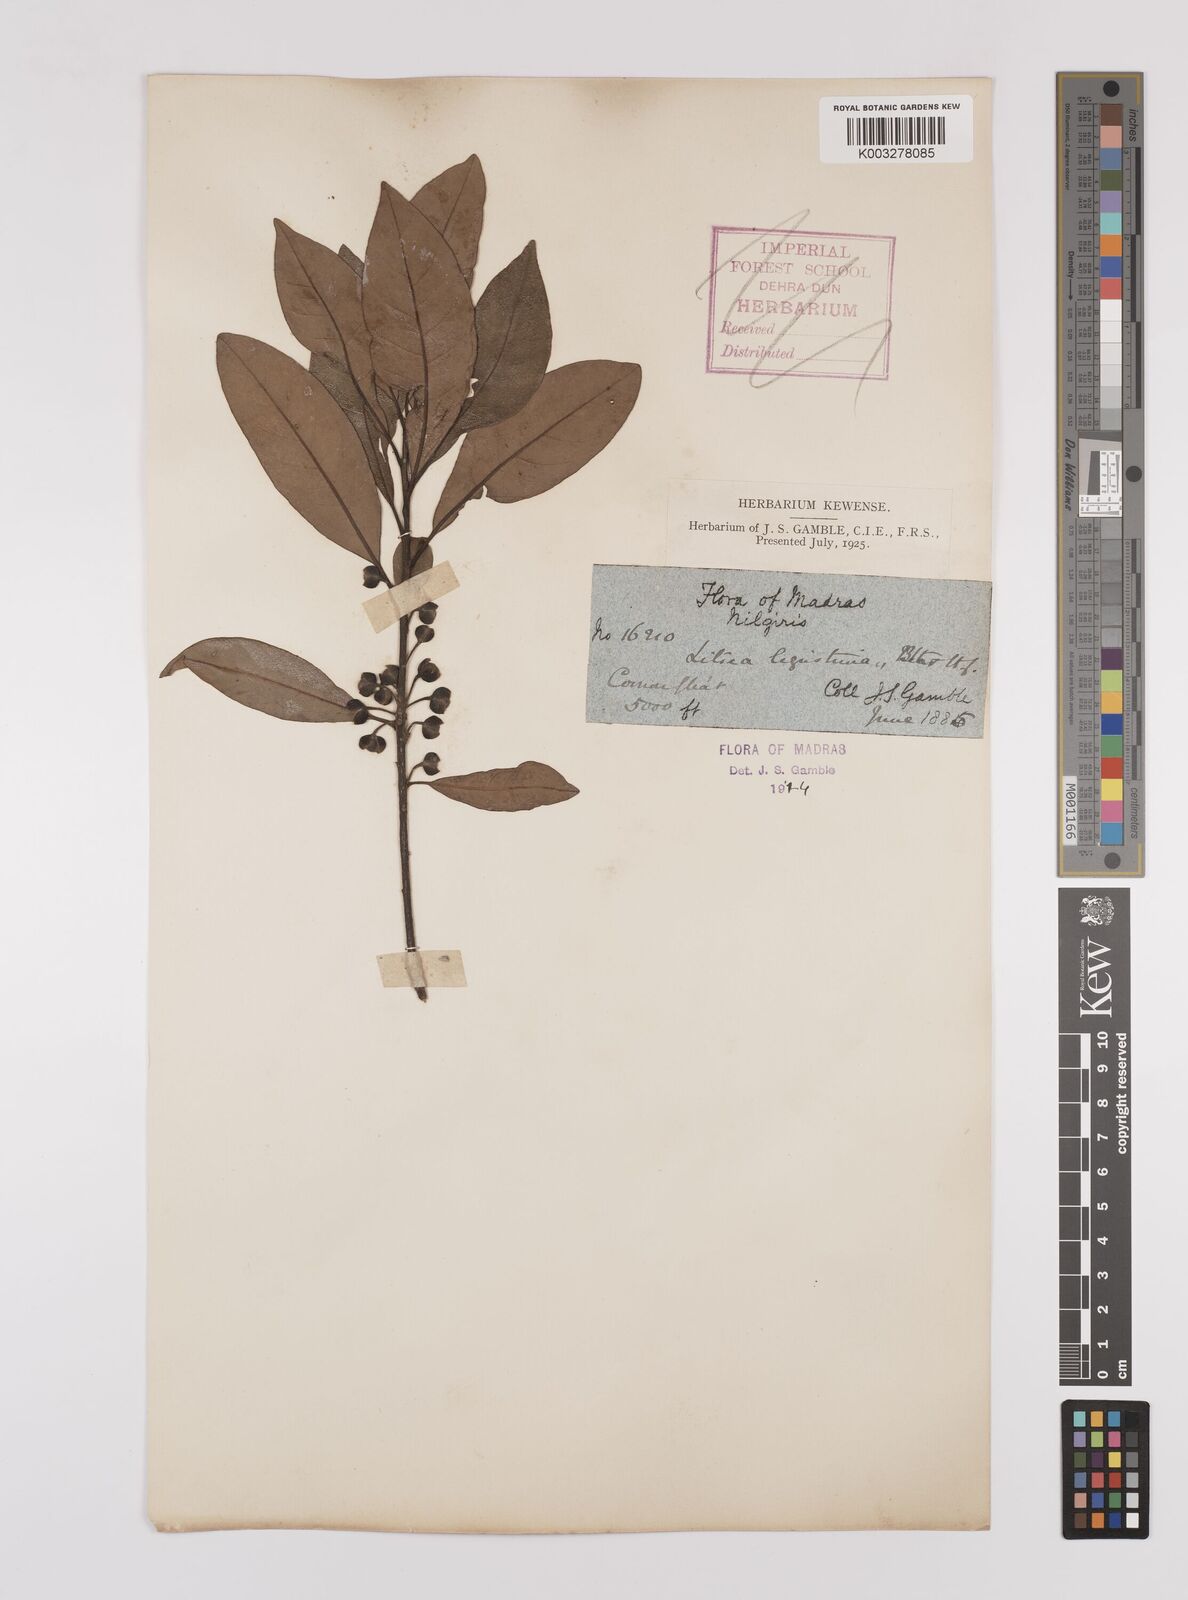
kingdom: Plantae
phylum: Tracheophyta
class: Magnoliopsida
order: Laurales
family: Lauraceae
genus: Litsea
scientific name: Litsea ligustrina
